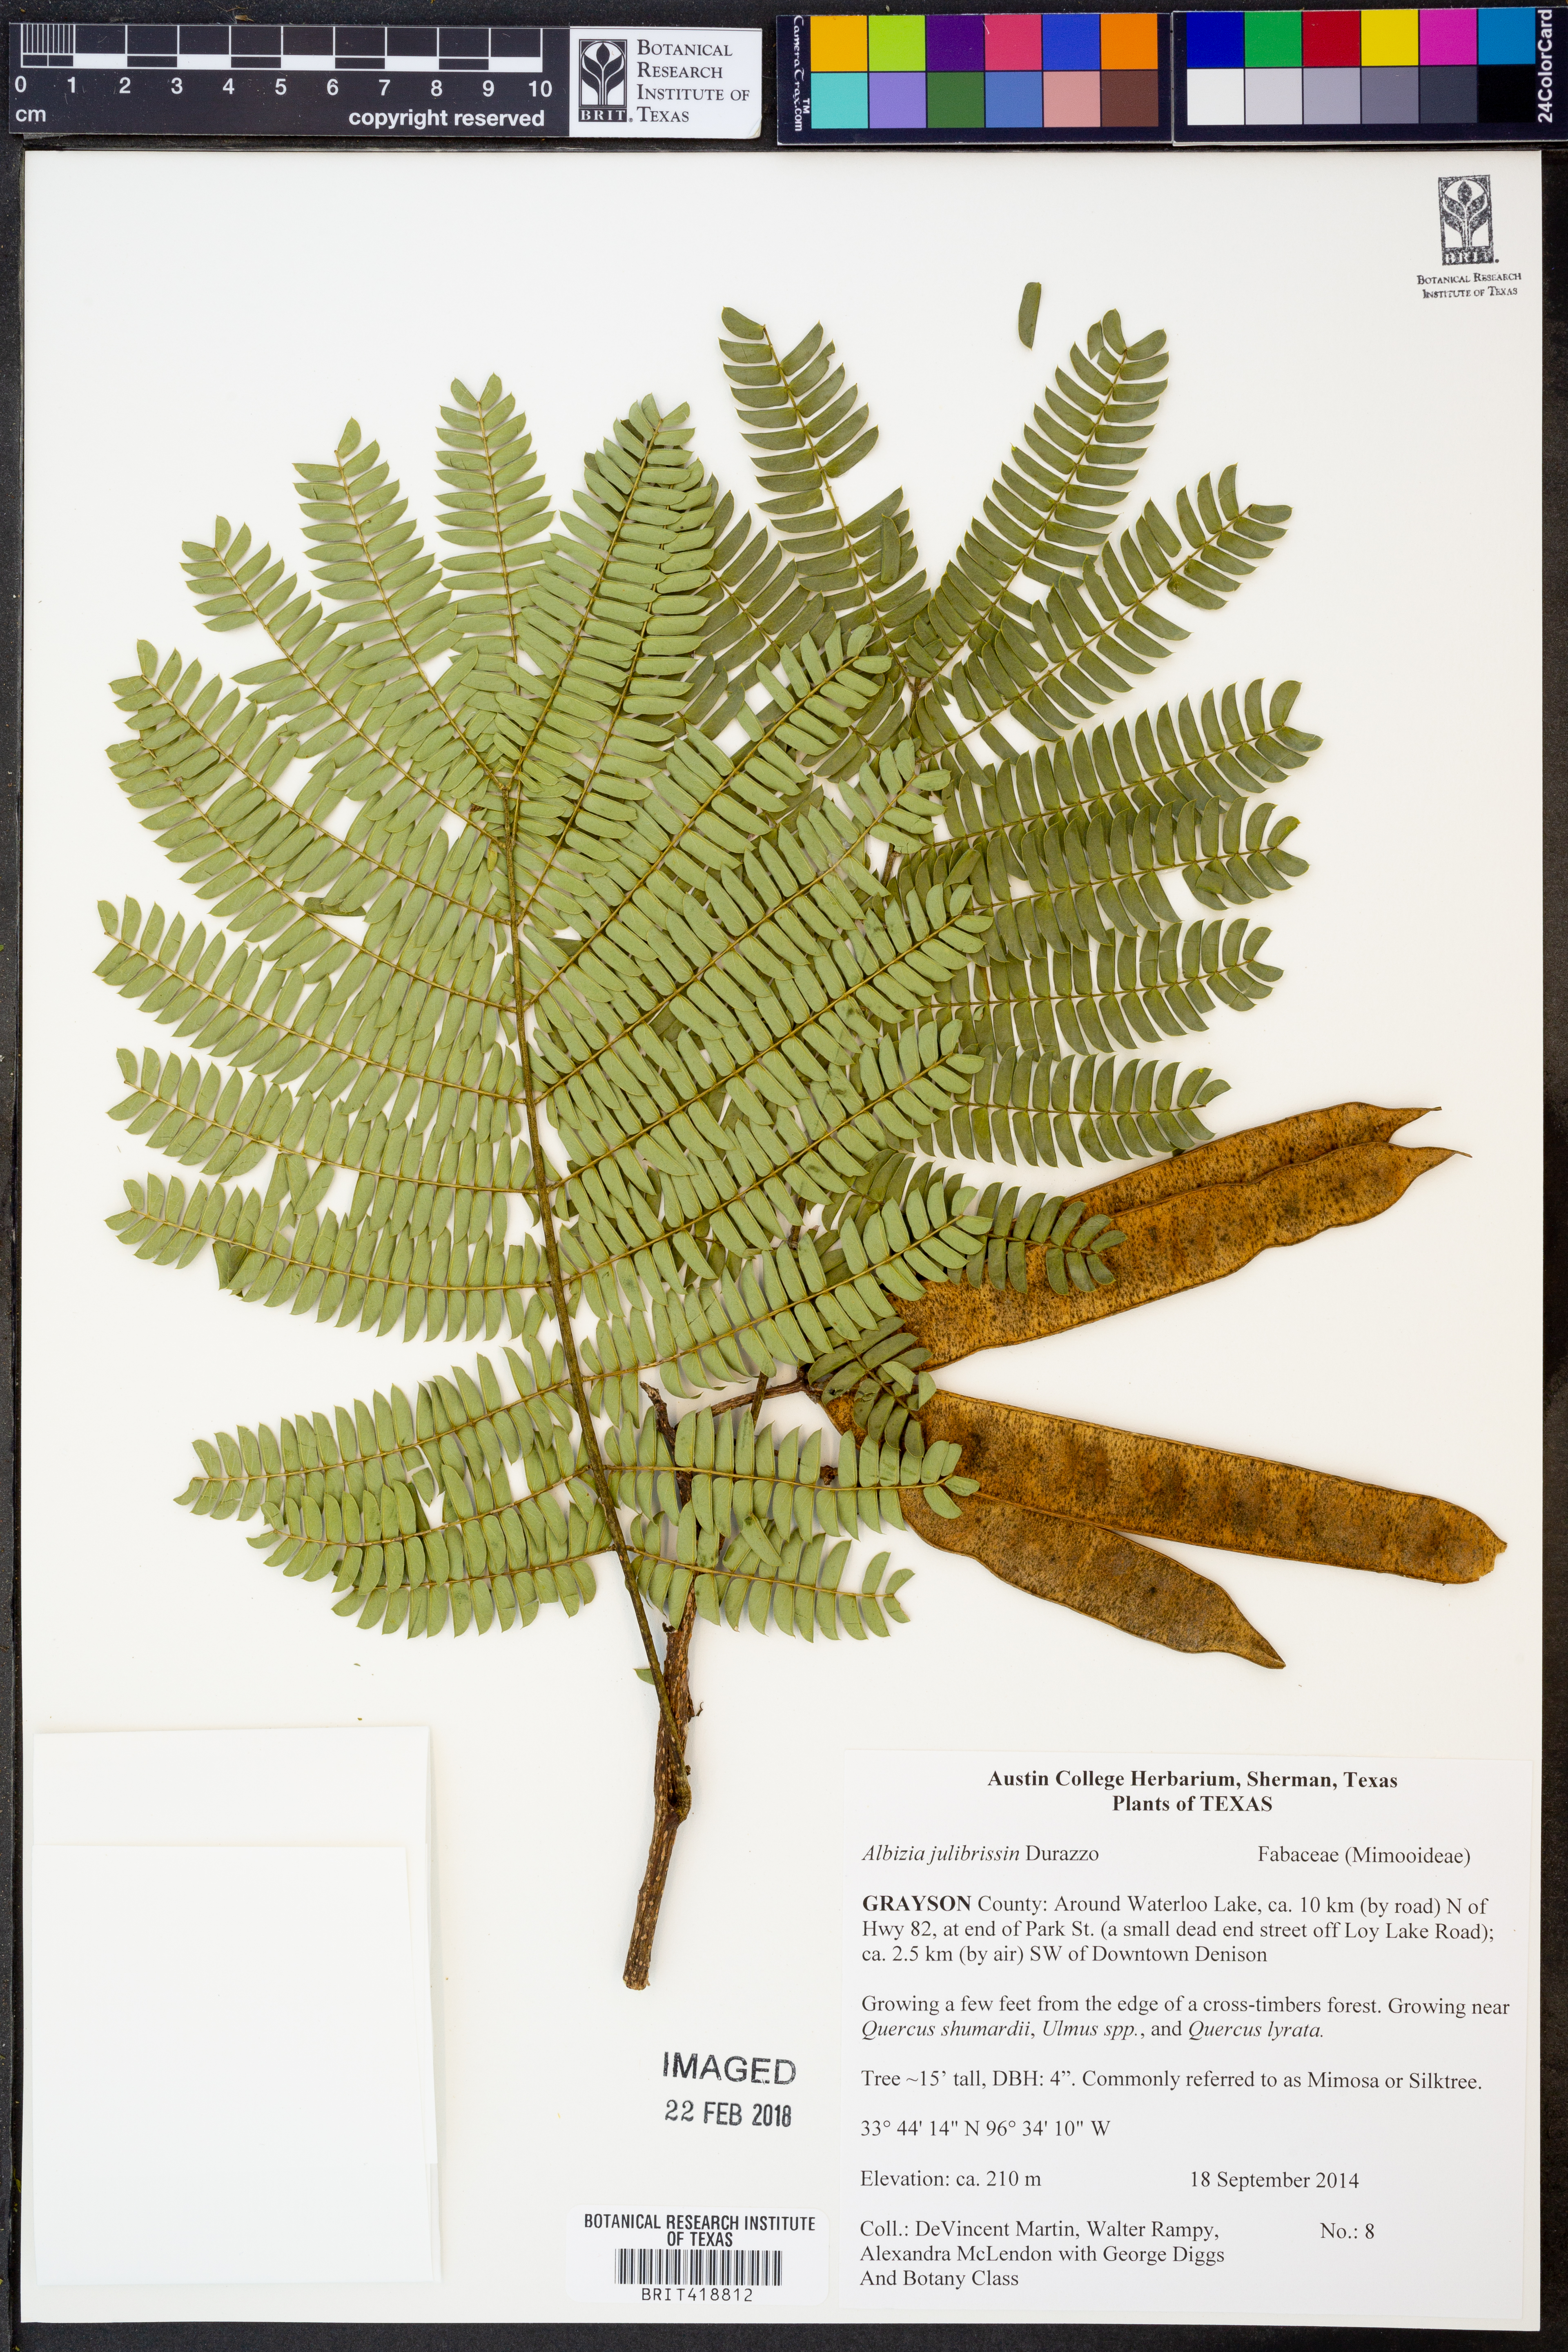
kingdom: Plantae
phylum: Tracheophyta
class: Magnoliopsida
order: Fabales
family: Fabaceae
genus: Albizia
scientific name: Albizia julibrissin
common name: Silktree
